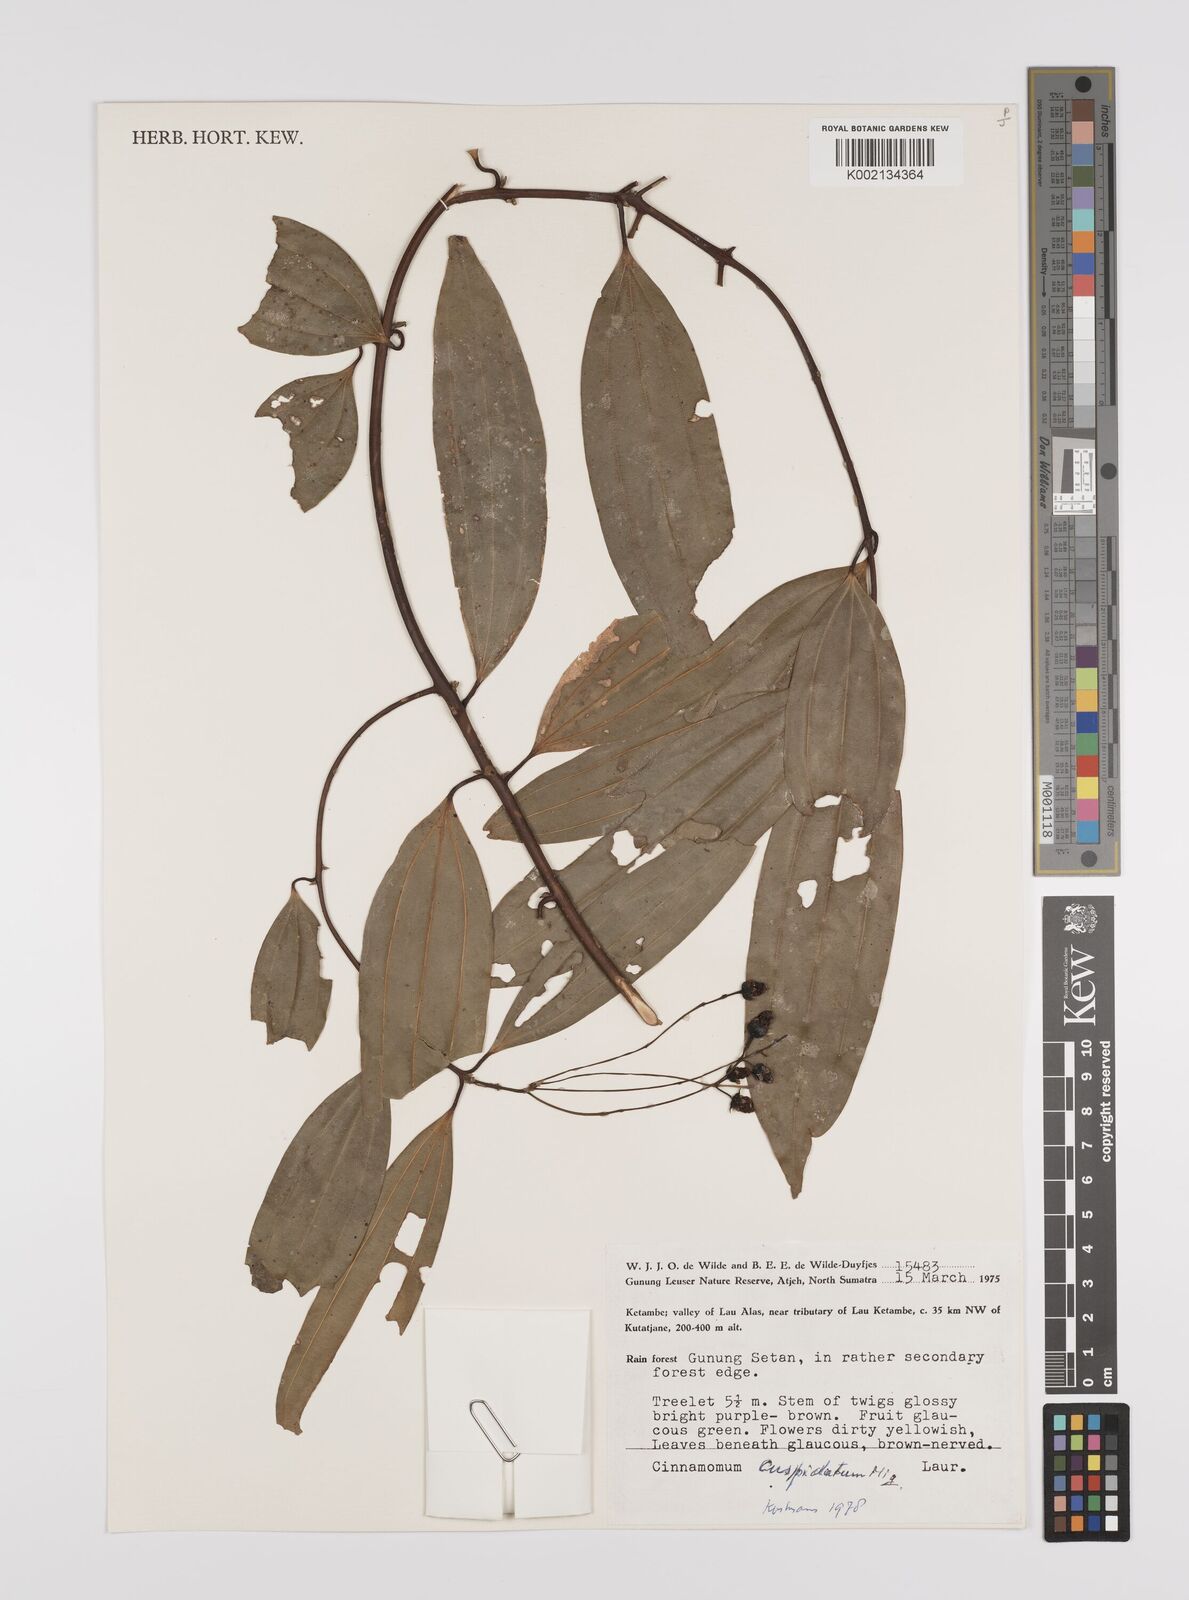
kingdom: Plantae
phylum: Tracheophyta
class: Magnoliopsida
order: Laurales
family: Lauraceae
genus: Cinnamomum
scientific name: Cinnamomum cuspidatum
